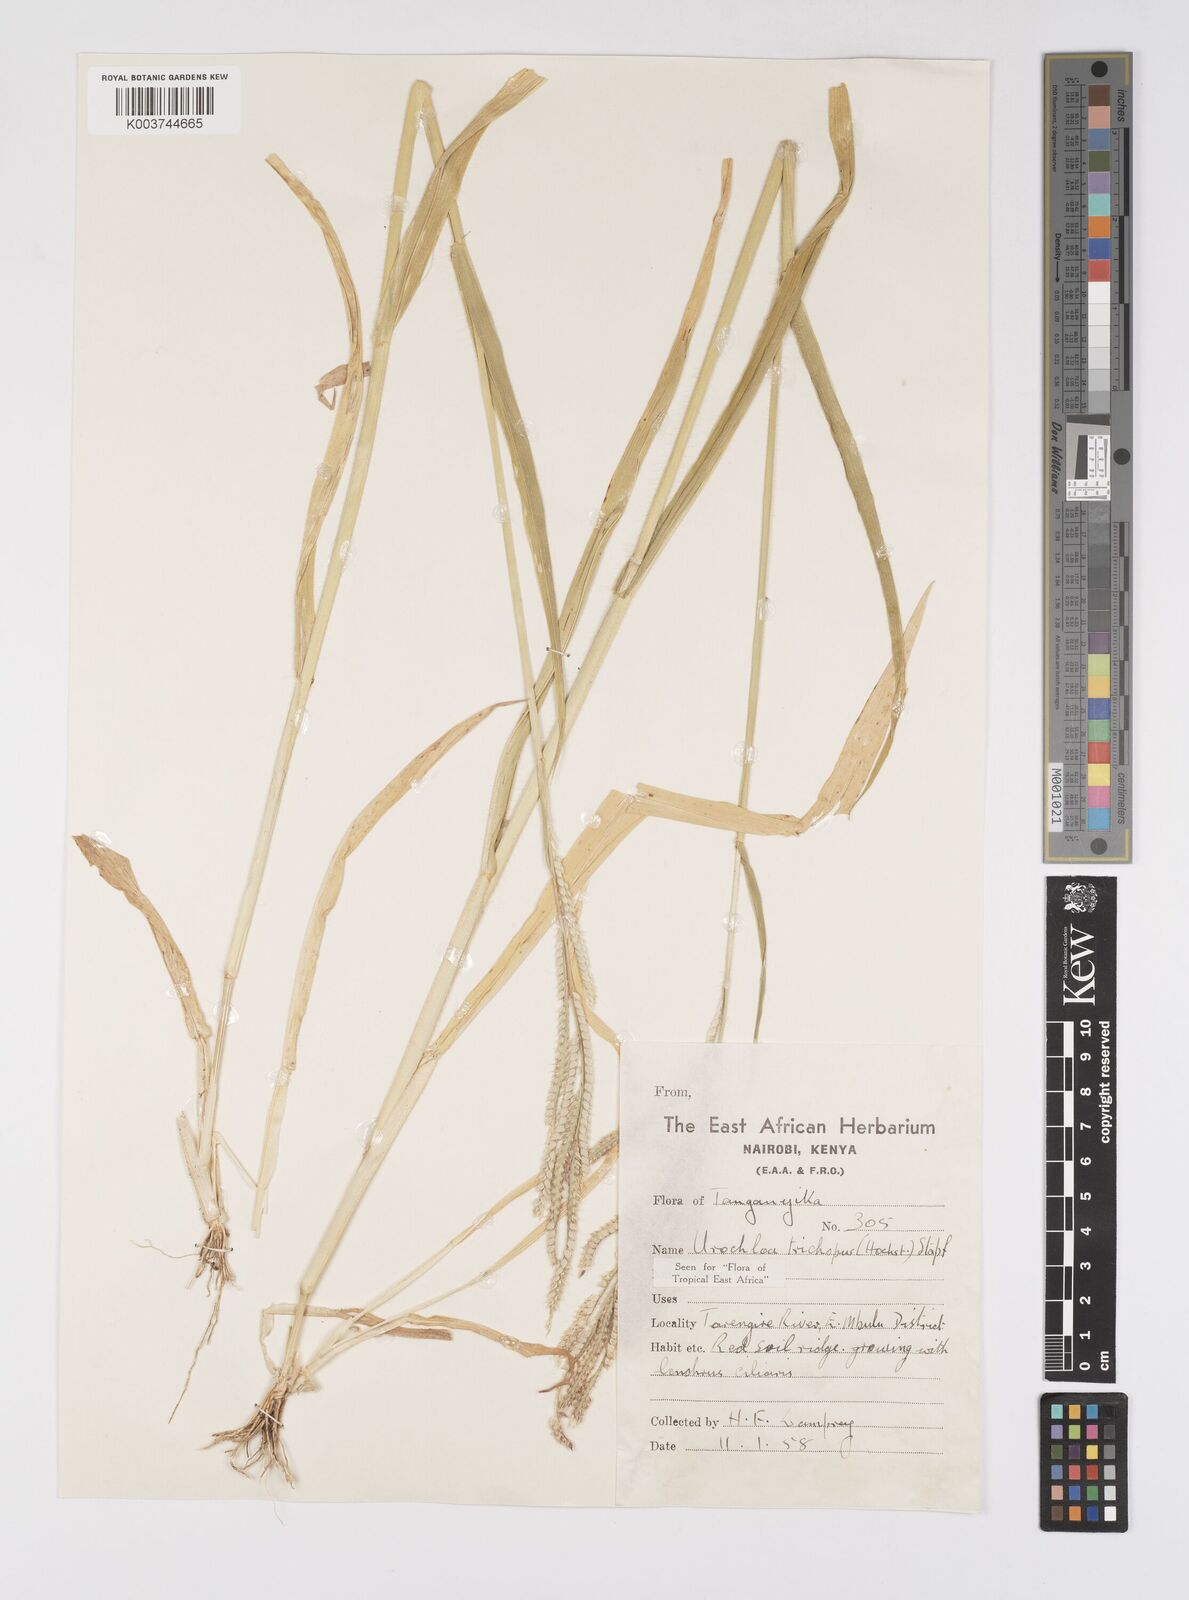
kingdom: Plantae
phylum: Tracheophyta
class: Liliopsida
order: Poales
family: Poaceae
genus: Urochloa
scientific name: Urochloa trichopus
